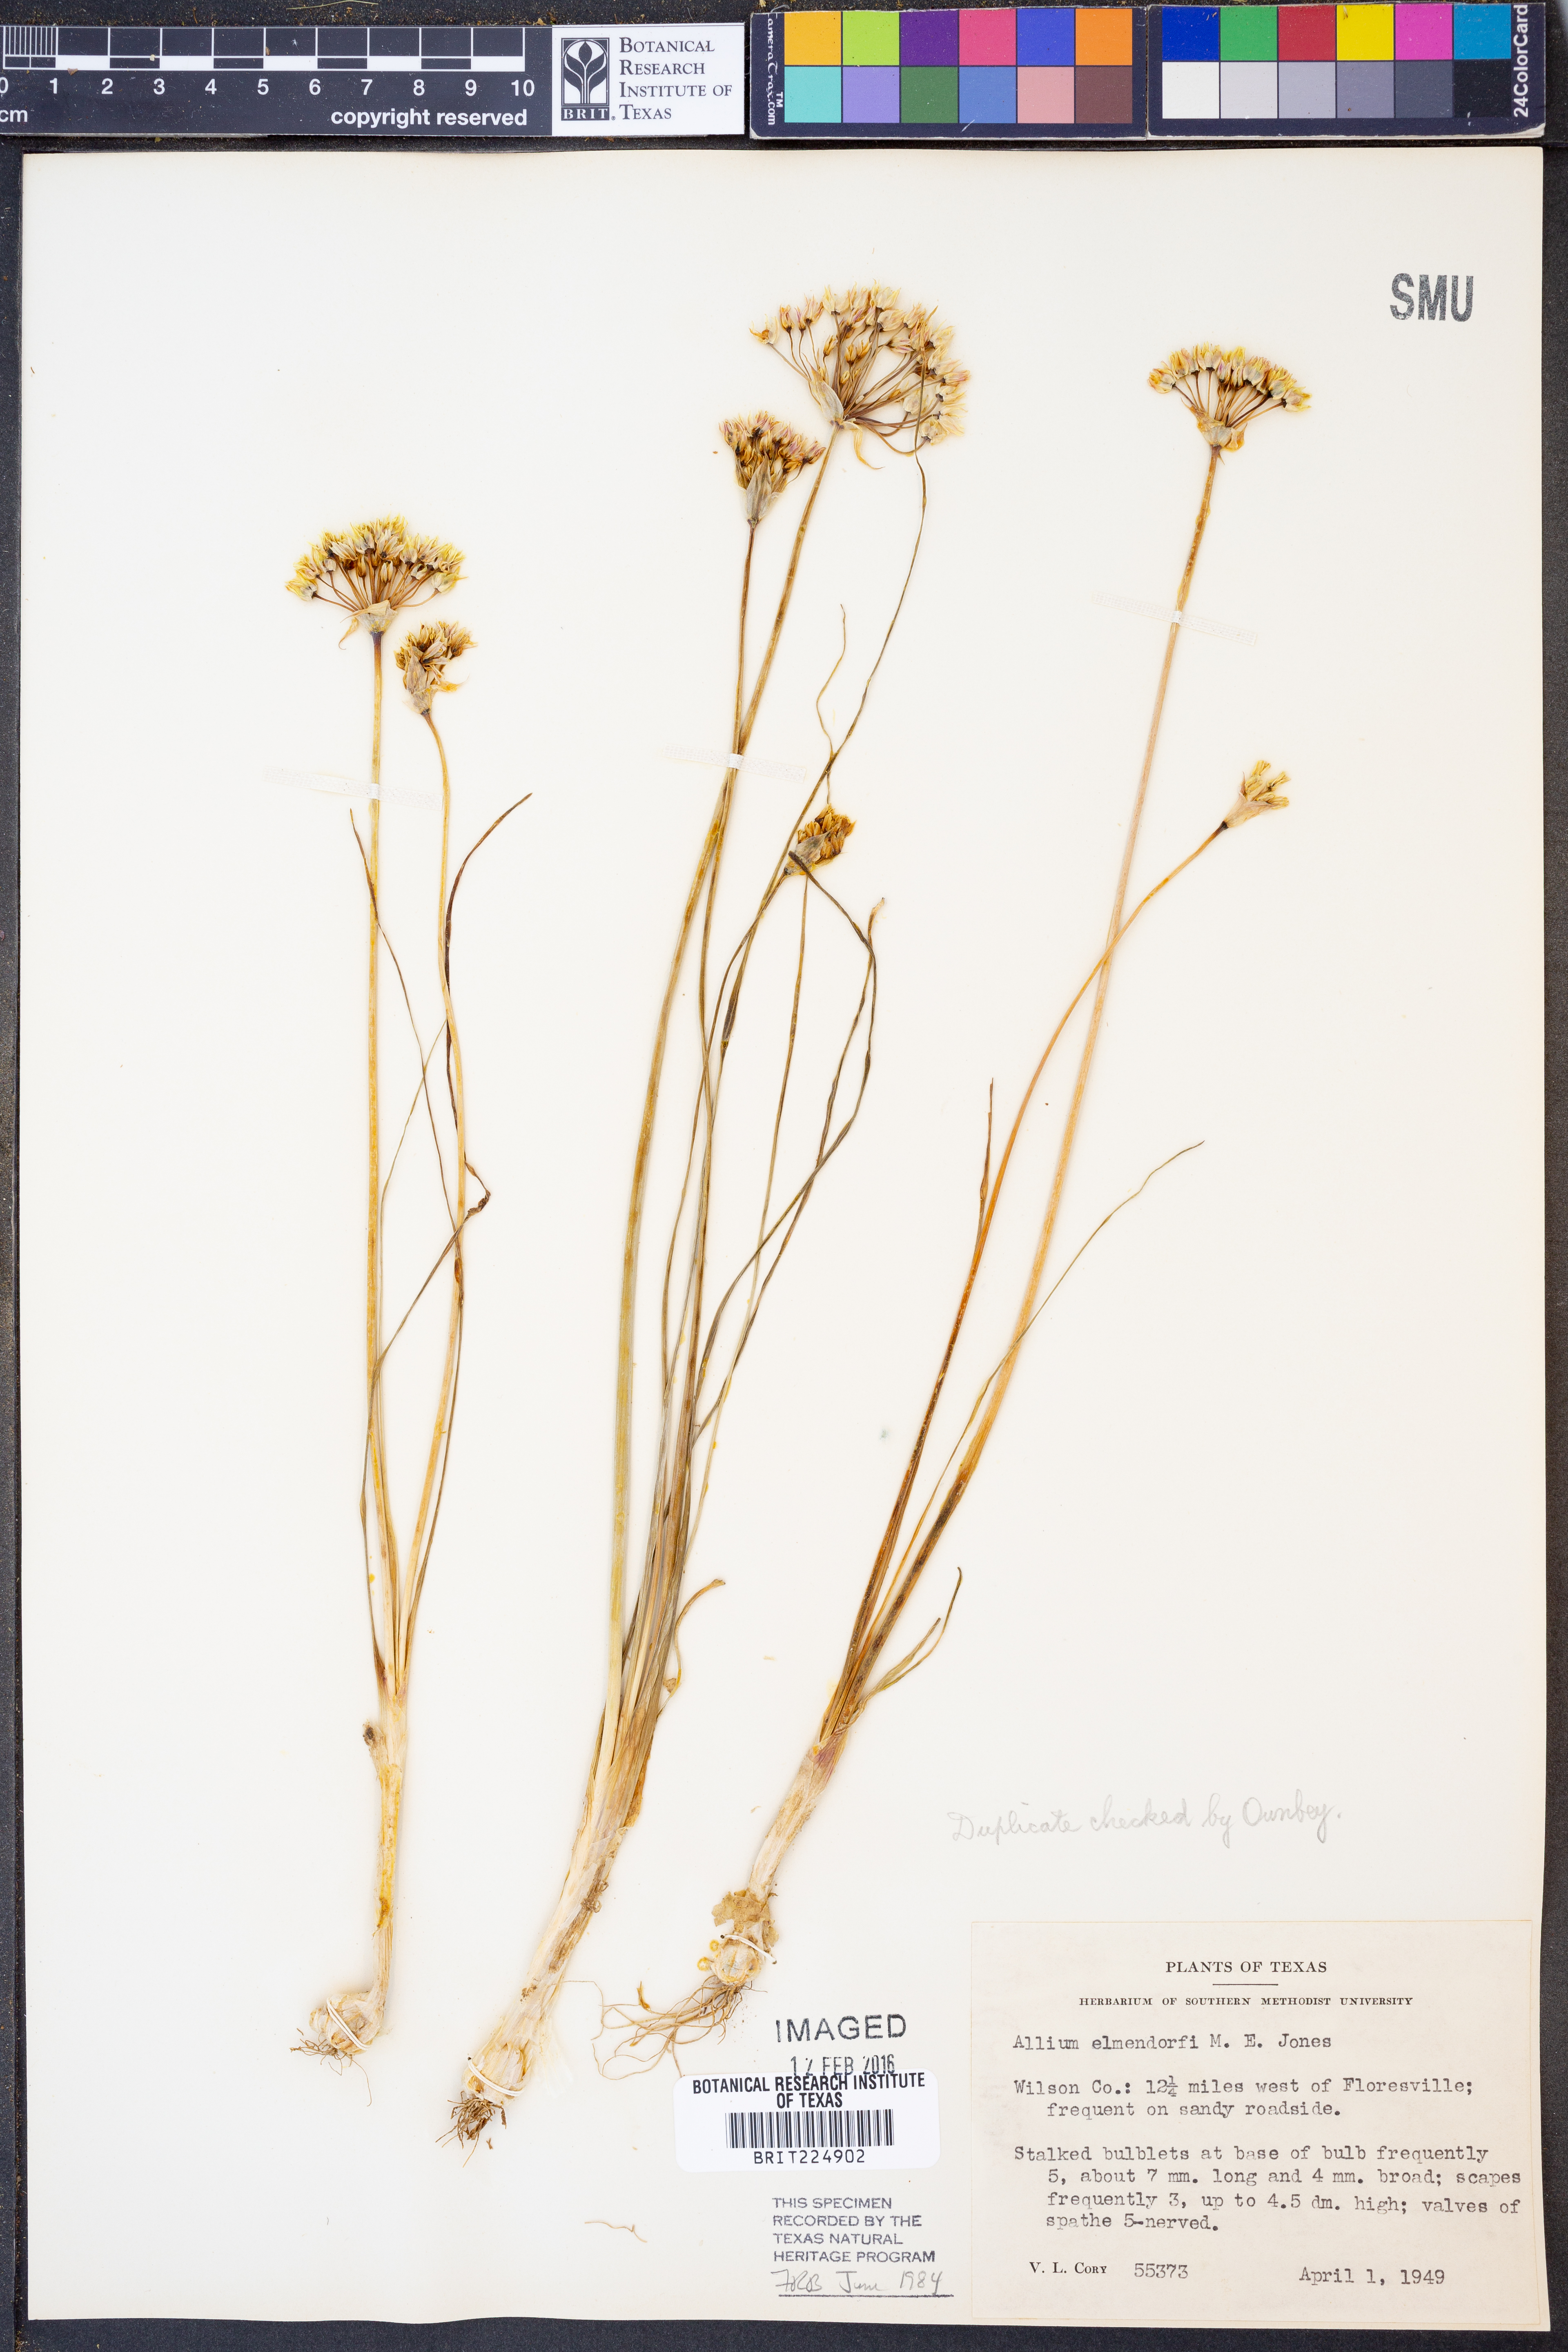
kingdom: Plantae
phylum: Tracheophyta
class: Liliopsida
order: Asparagales
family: Amaryllidaceae
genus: Allium
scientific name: Allium elmendorfii
